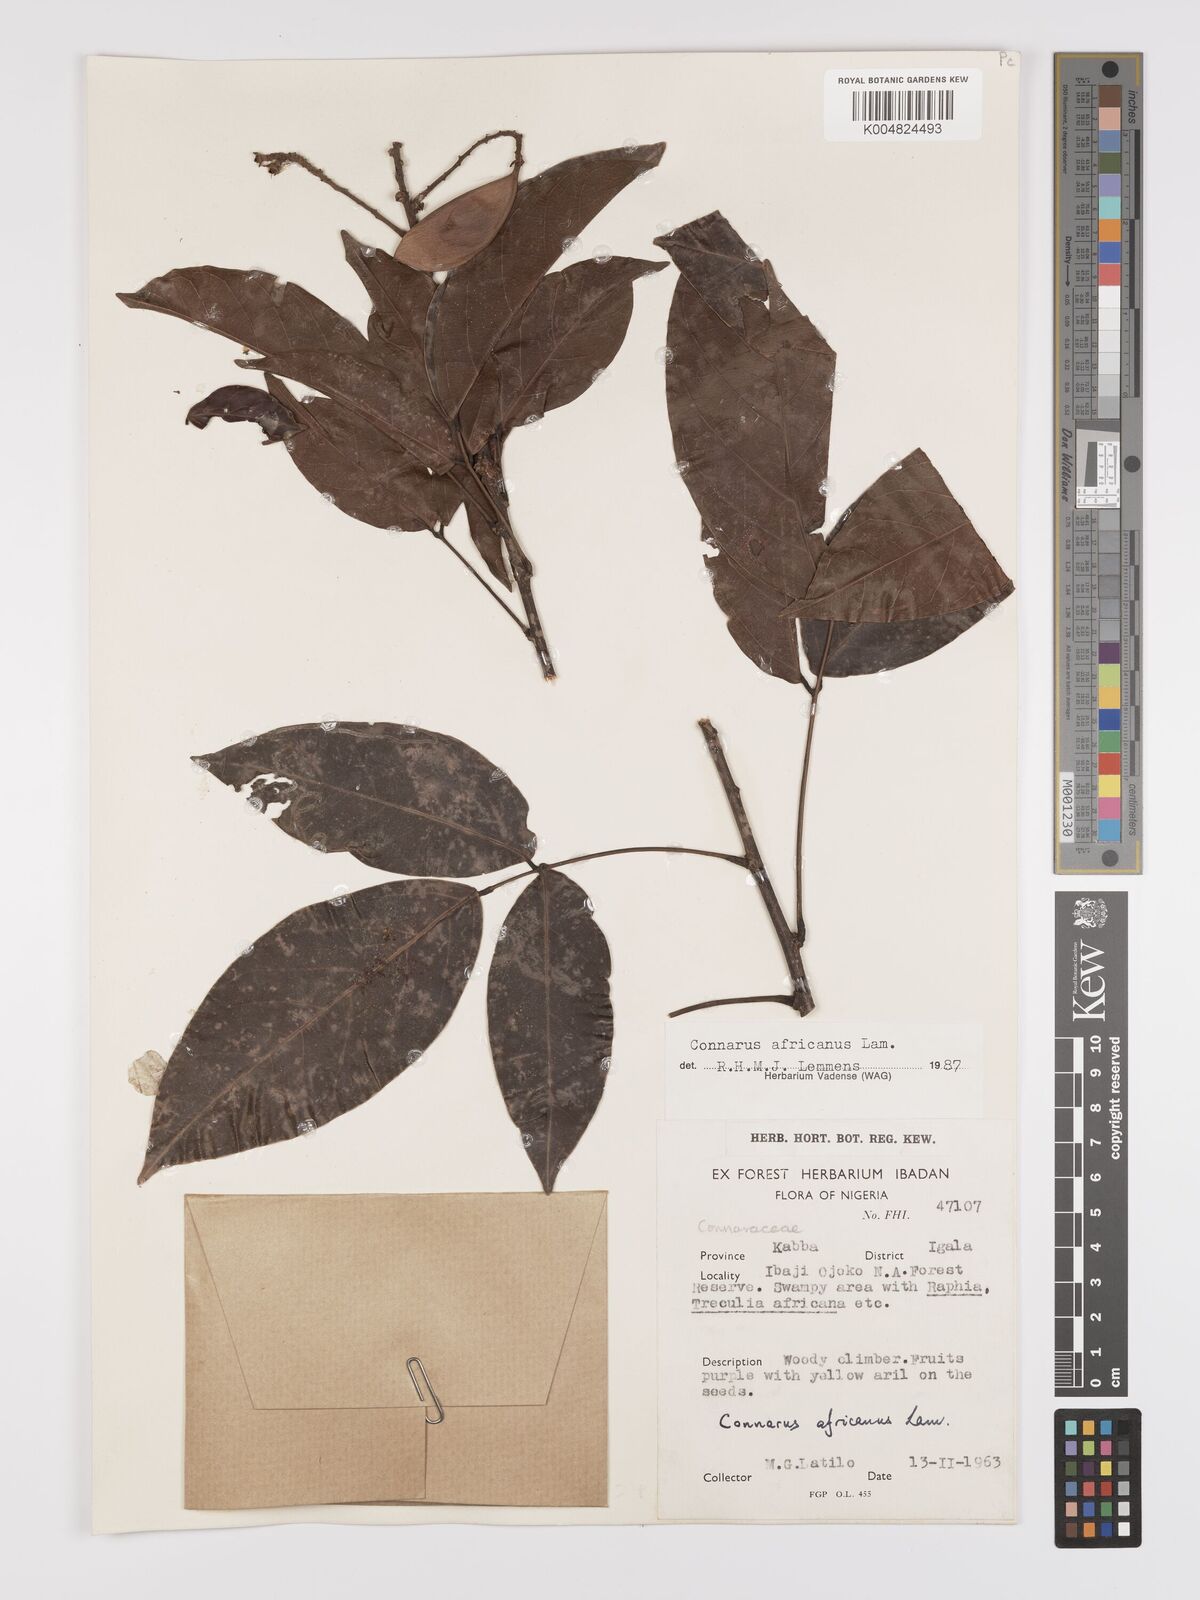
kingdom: Plantae
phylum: Tracheophyta
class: Magnoliopsida
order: Oxalidales
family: Connaraceae
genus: Connarus
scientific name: Connarus africanus
